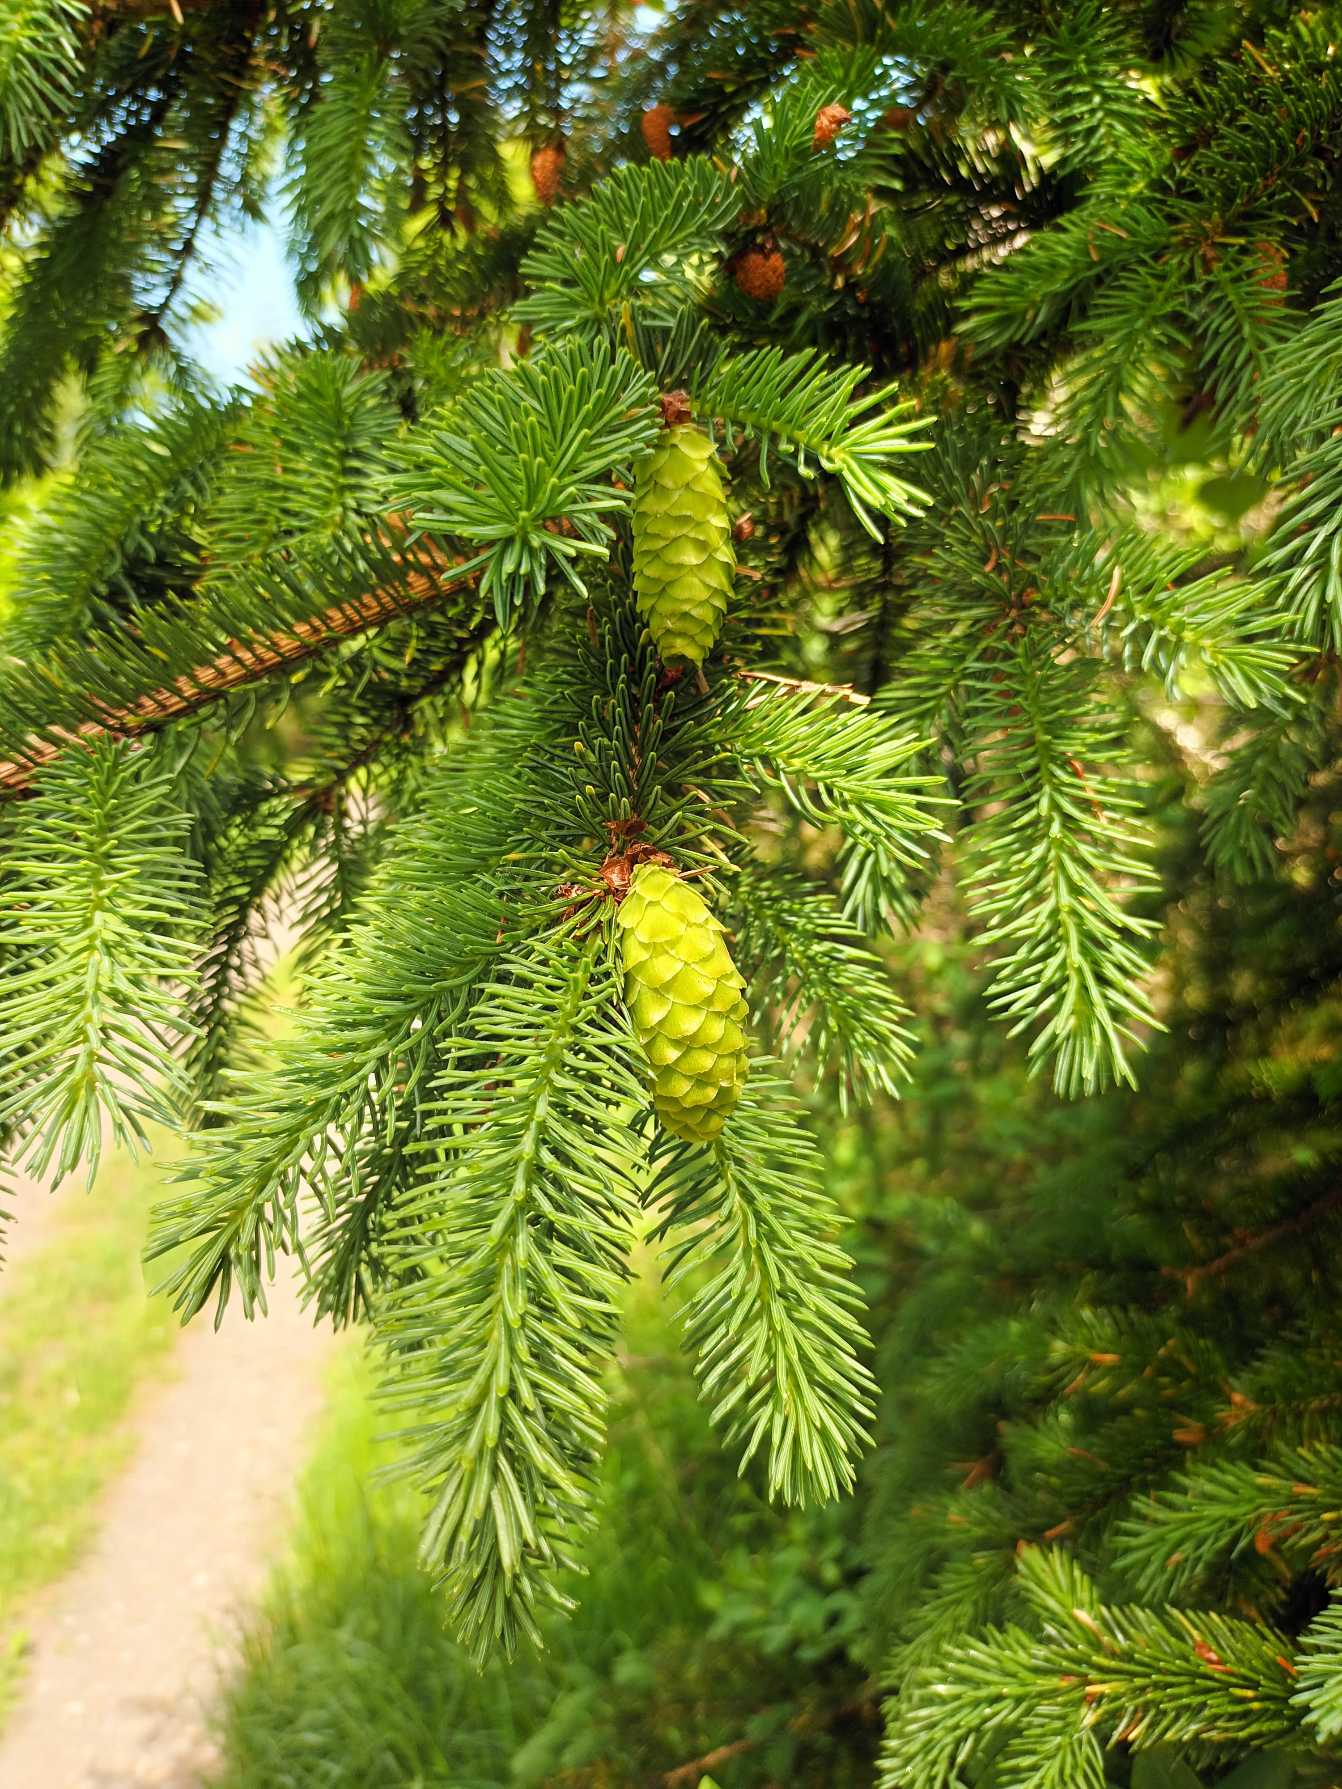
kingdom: Plantae
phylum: Tracheophyta
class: Pinopsida
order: Pinales
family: Pinaceae
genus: Picea
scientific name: Picea glauca
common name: Hvid-gran
